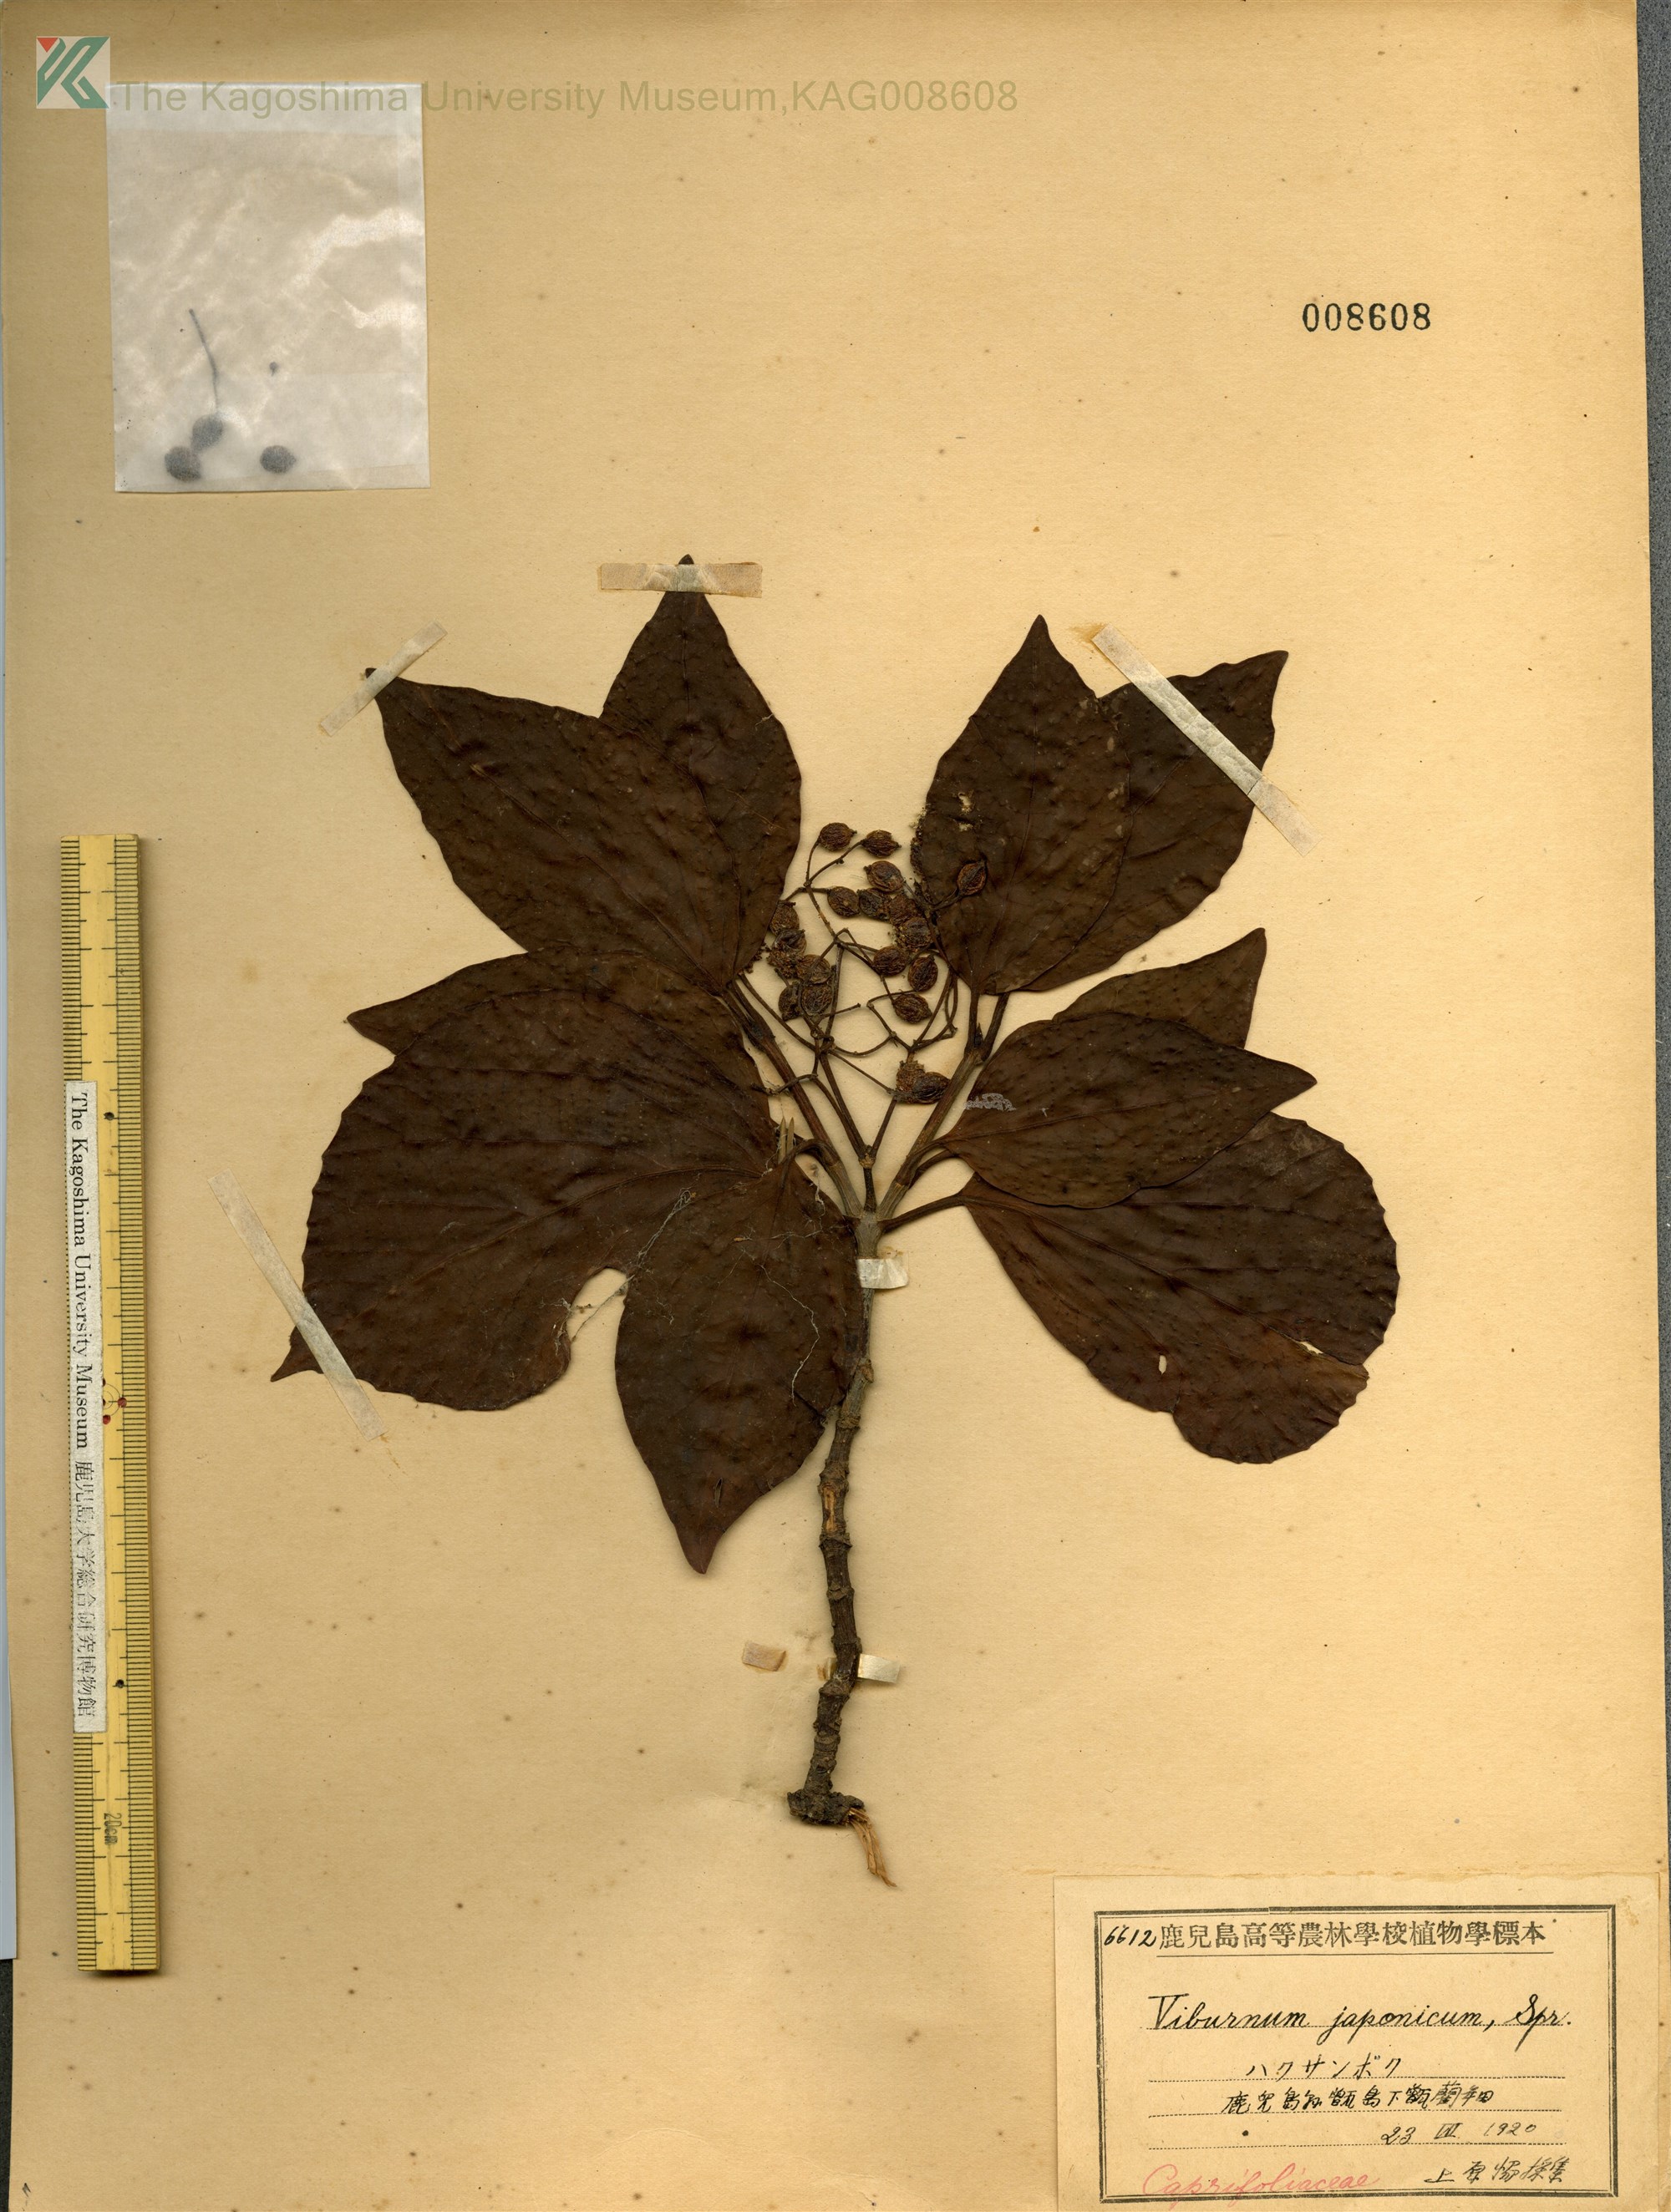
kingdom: Plantae
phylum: Tracheophyta
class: Magnoliopsida
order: Dipsacales
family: Viburnaceae
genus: Viburnum
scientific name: Viburnum japonicum
